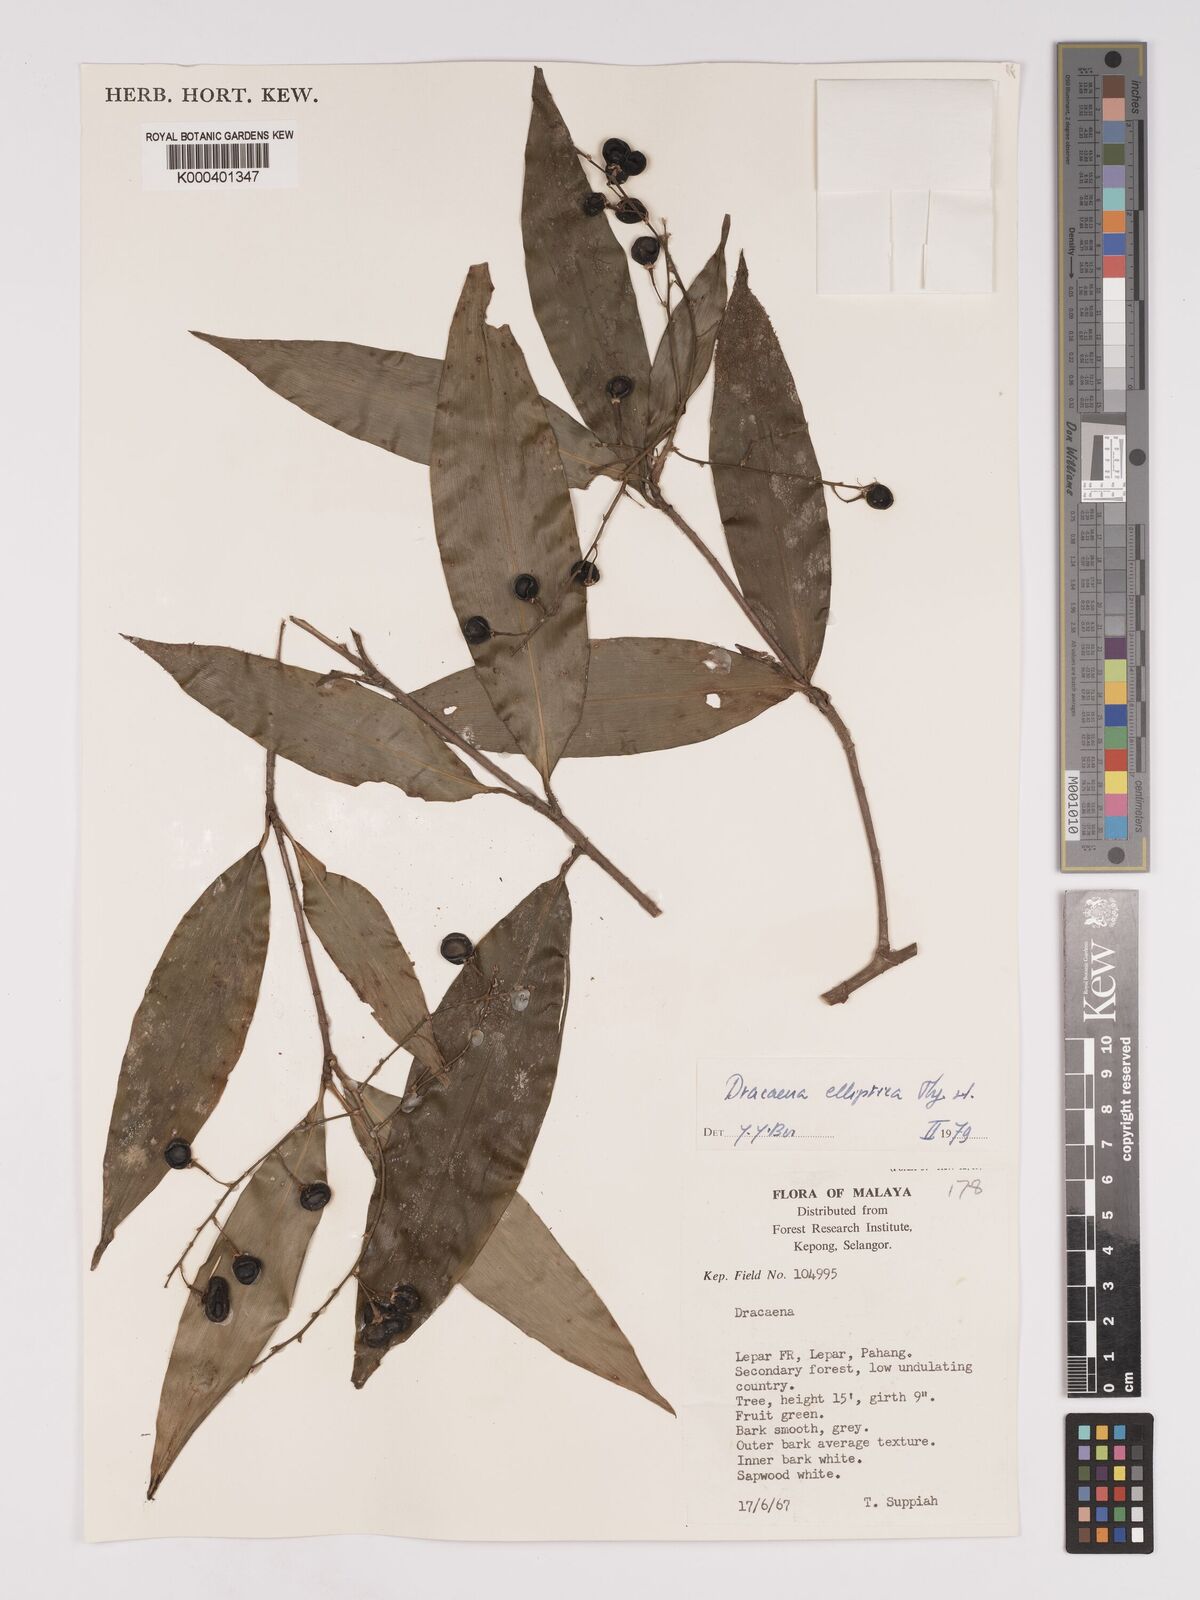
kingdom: Plantae
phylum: Tracheophyta
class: Liliopsida
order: Asparagales
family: Asparagaceae
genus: Dracaena
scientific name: Dracaena elliptica
